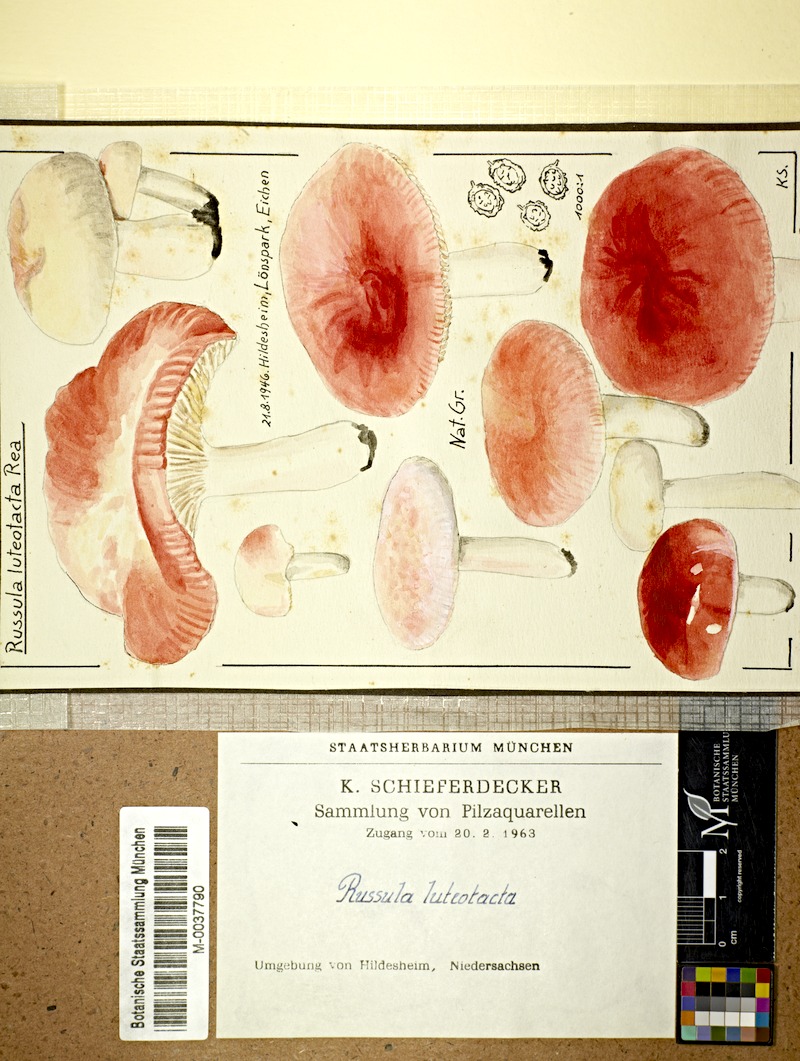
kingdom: Fungi
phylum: Basidiomycota
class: Agaricomycetes
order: Russulales
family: Russulaceae
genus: Russula
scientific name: Russula luteotacta
